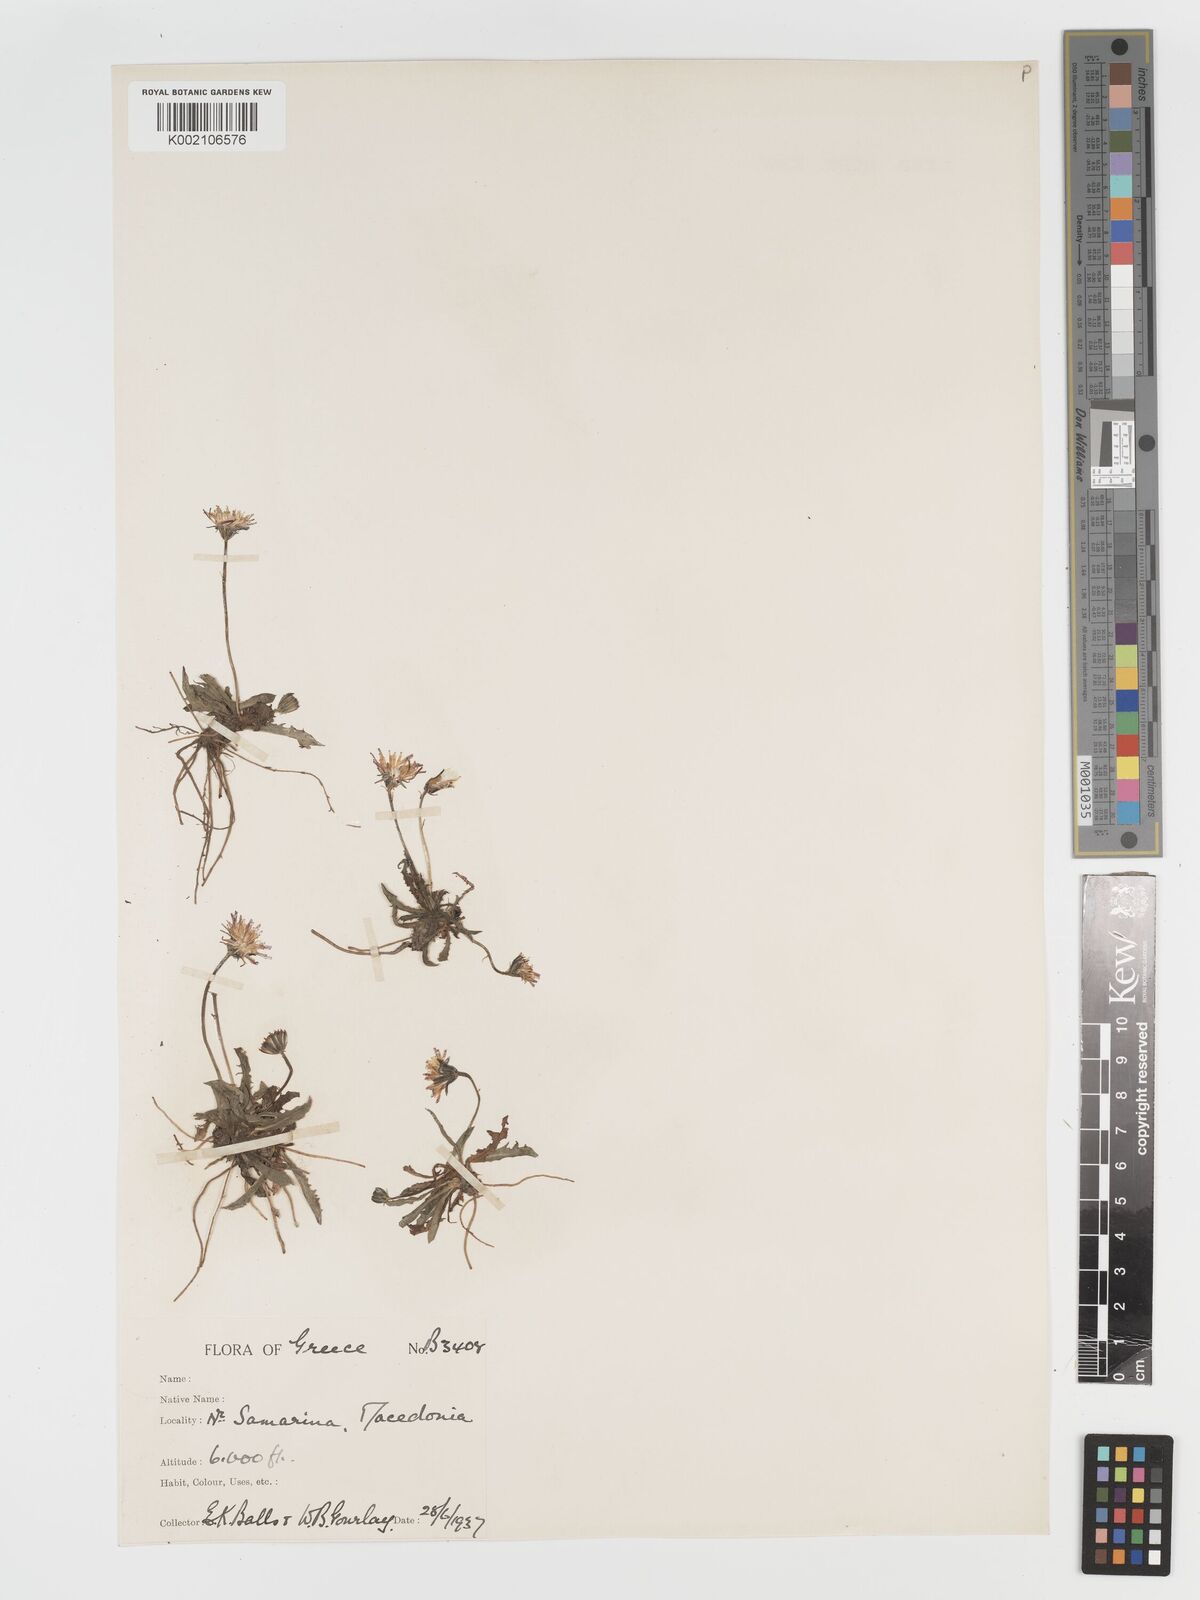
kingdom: Plantae
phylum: Tracheophyta
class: Magnoliopsida
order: Asterales
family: Asteraceae
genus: Crepis
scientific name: Crepis aurea
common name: Golden hawk's-beard
